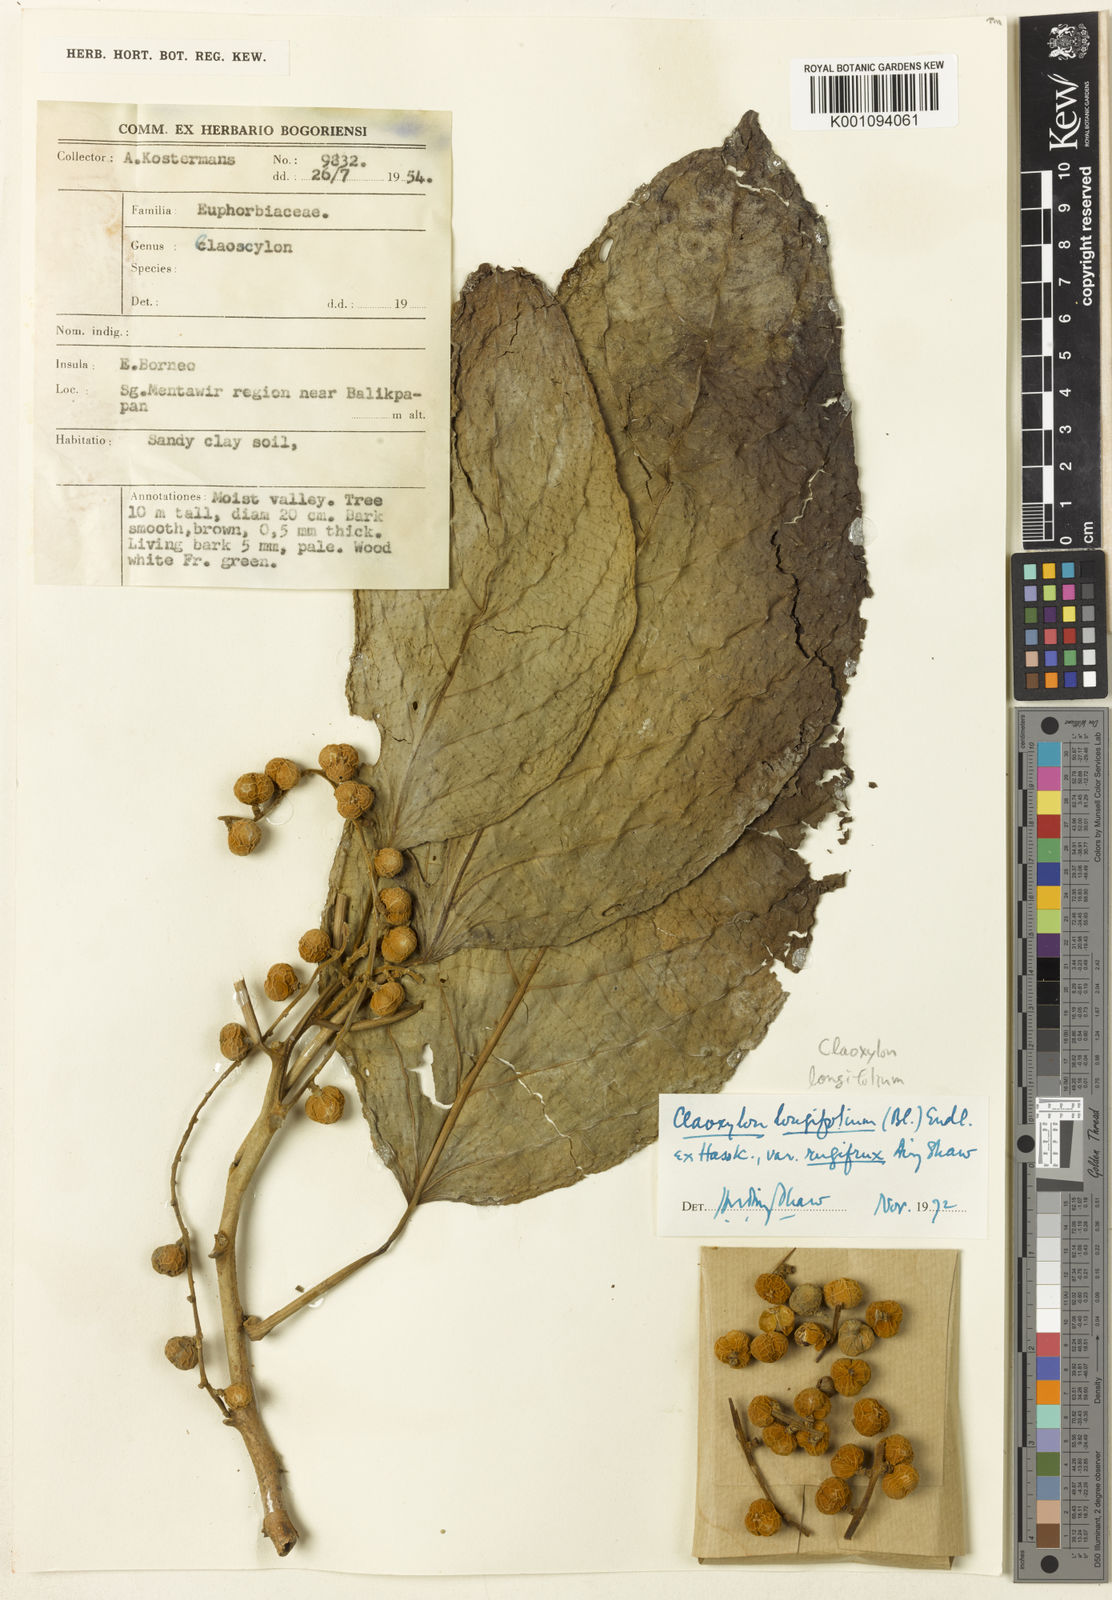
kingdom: Plantae
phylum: Tracheophyta
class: Magnoliopsida
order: Malpighiales
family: Euphorbiaceae
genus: Claoxylon
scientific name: Claoxylon longifolium
